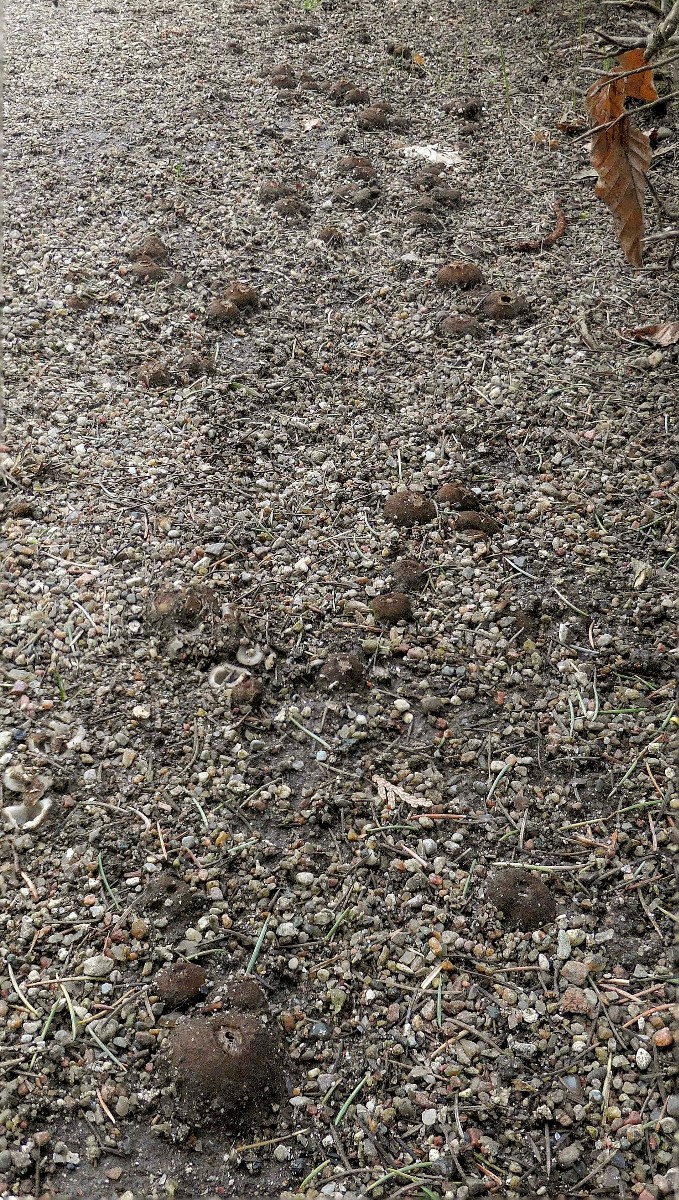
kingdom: Fungi
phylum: Ascomycota
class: Pezizomycetes
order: Pezizales
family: Pyronemataceae
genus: Geopora
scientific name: Geopora sumneriana
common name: vår-jordbæger
